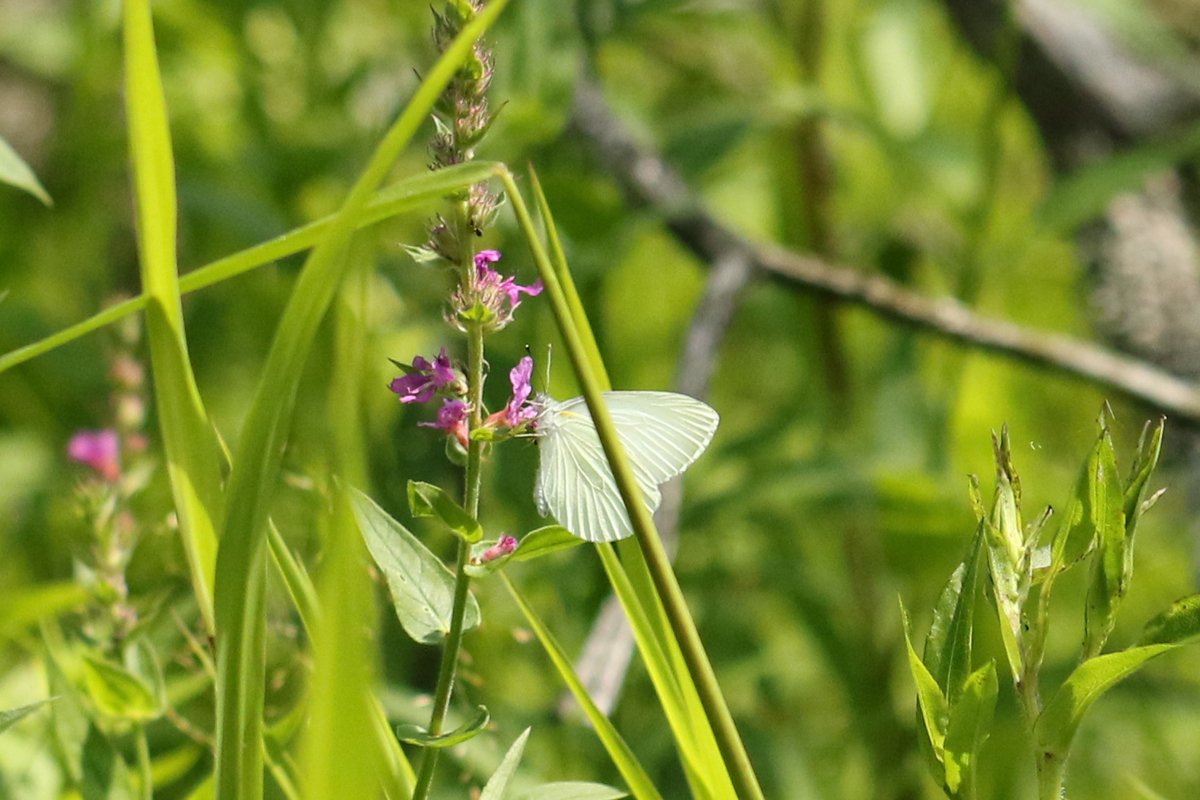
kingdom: Animalia
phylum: Arthropoda
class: Insecta
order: Lepidoptera
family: Pieridae
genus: Pieris
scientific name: Pieris oleracea
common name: Mustard White
